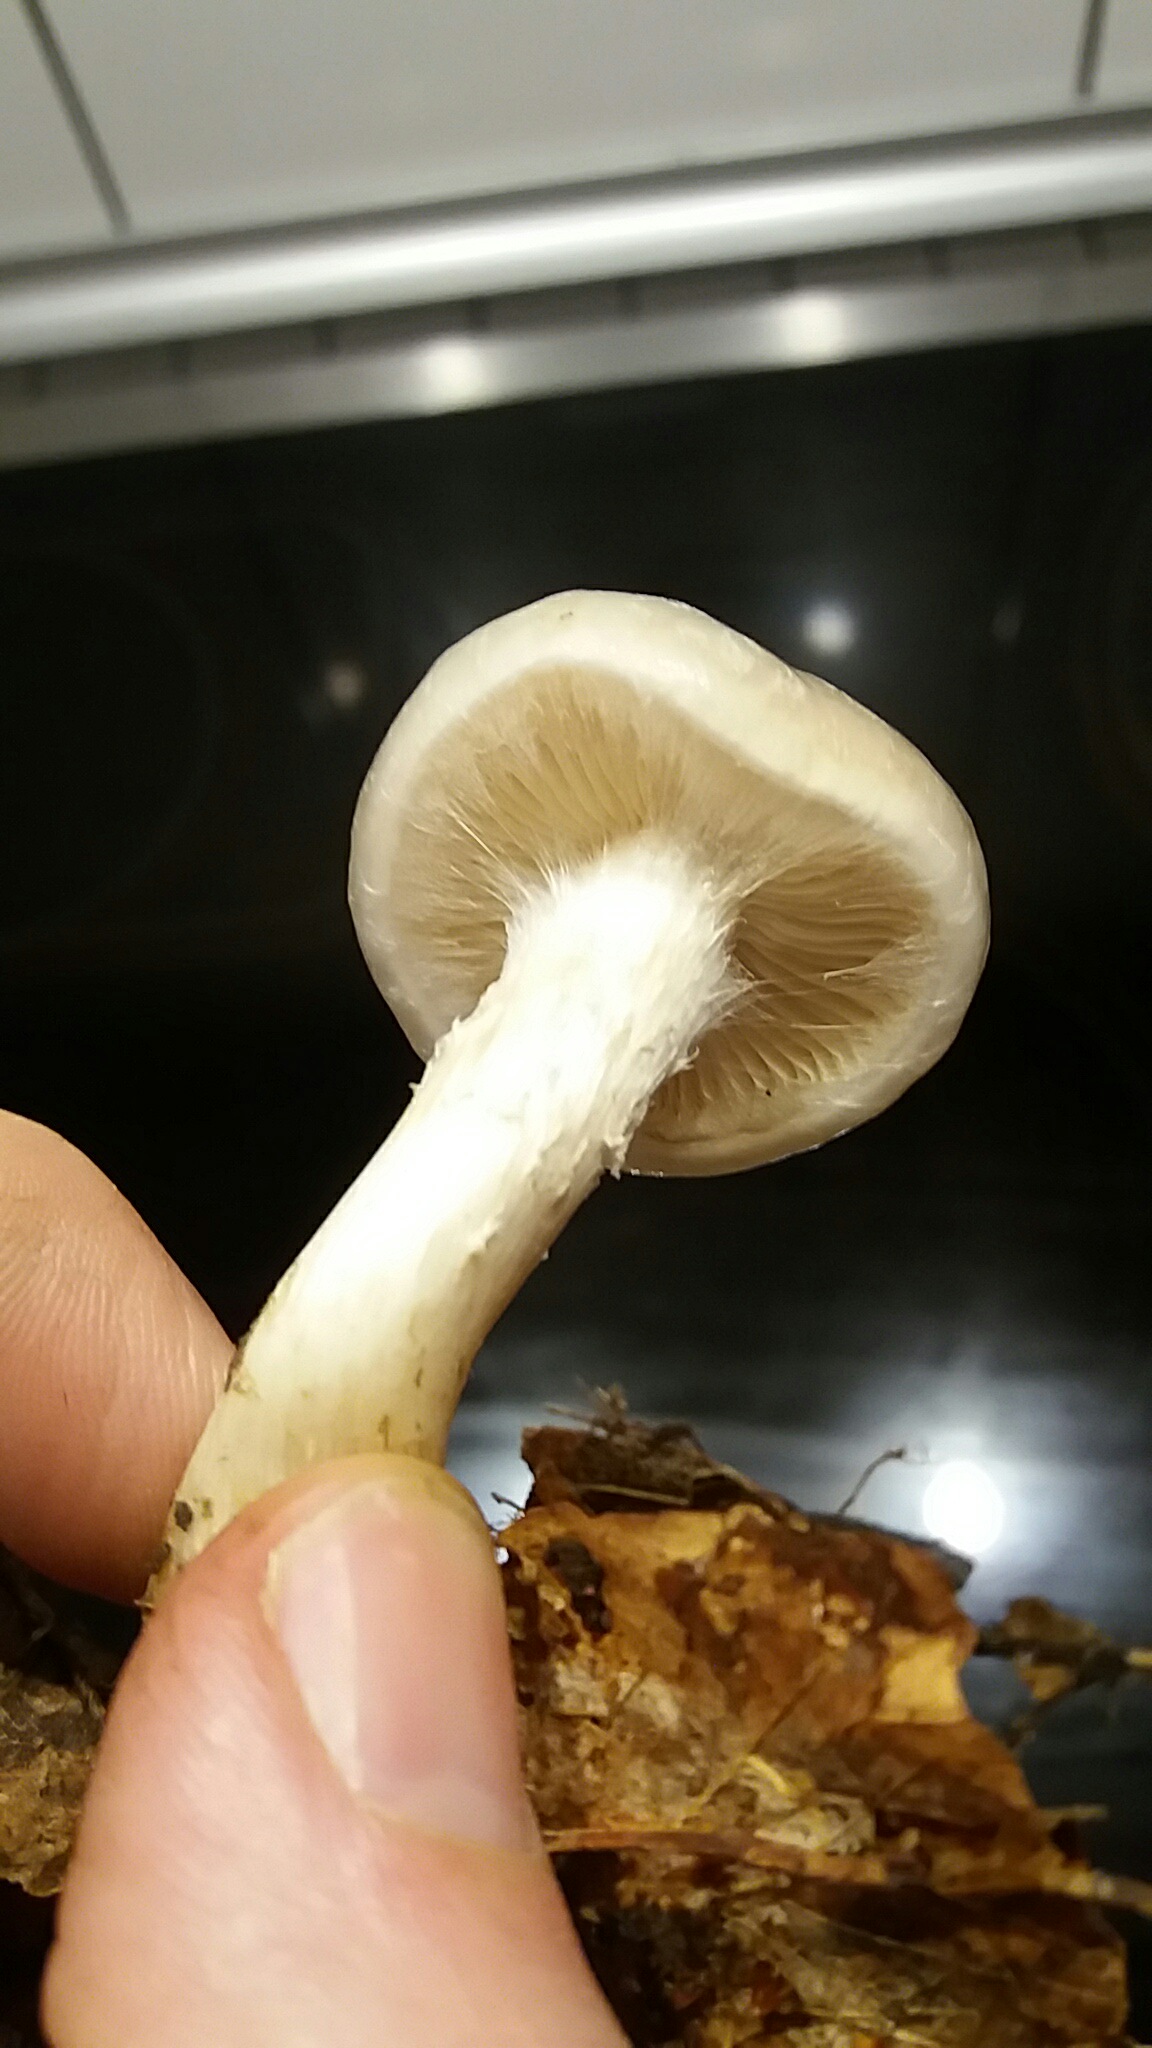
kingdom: Fungi
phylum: Basidiomycota
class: Agaricomycetes
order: Agaricales
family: Strophariaceae
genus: Pholiota
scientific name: Pholiota lenta
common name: løv-skælhat
